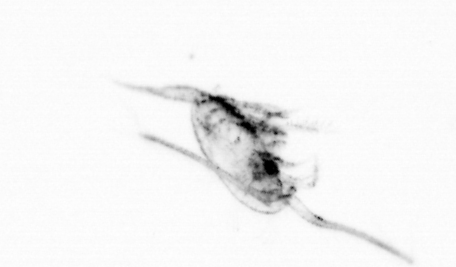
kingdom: Animalia
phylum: Arthropoda
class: Copepoda
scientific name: Copepoda
